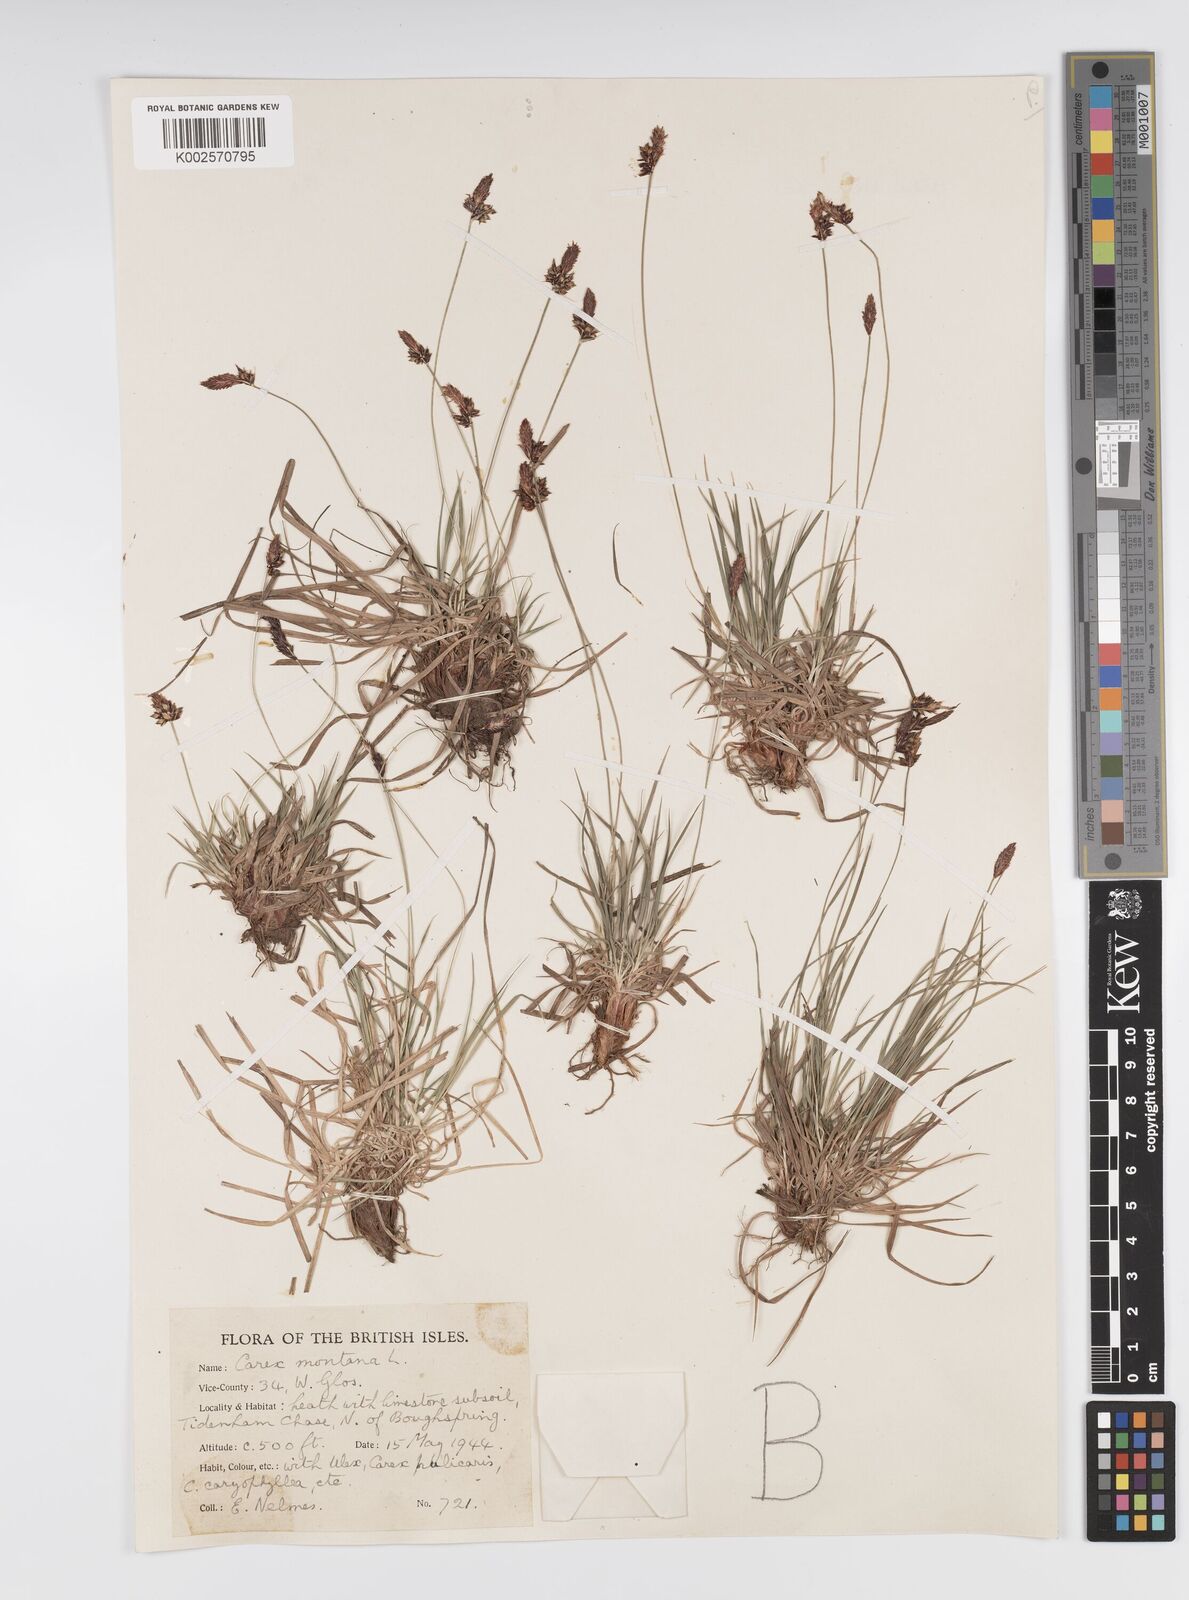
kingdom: Plantae
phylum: Tracheophyta
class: Liliopsida
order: Poales
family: Cyperaceae
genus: Carex
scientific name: Carex montana
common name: Soft-leaved sedge
